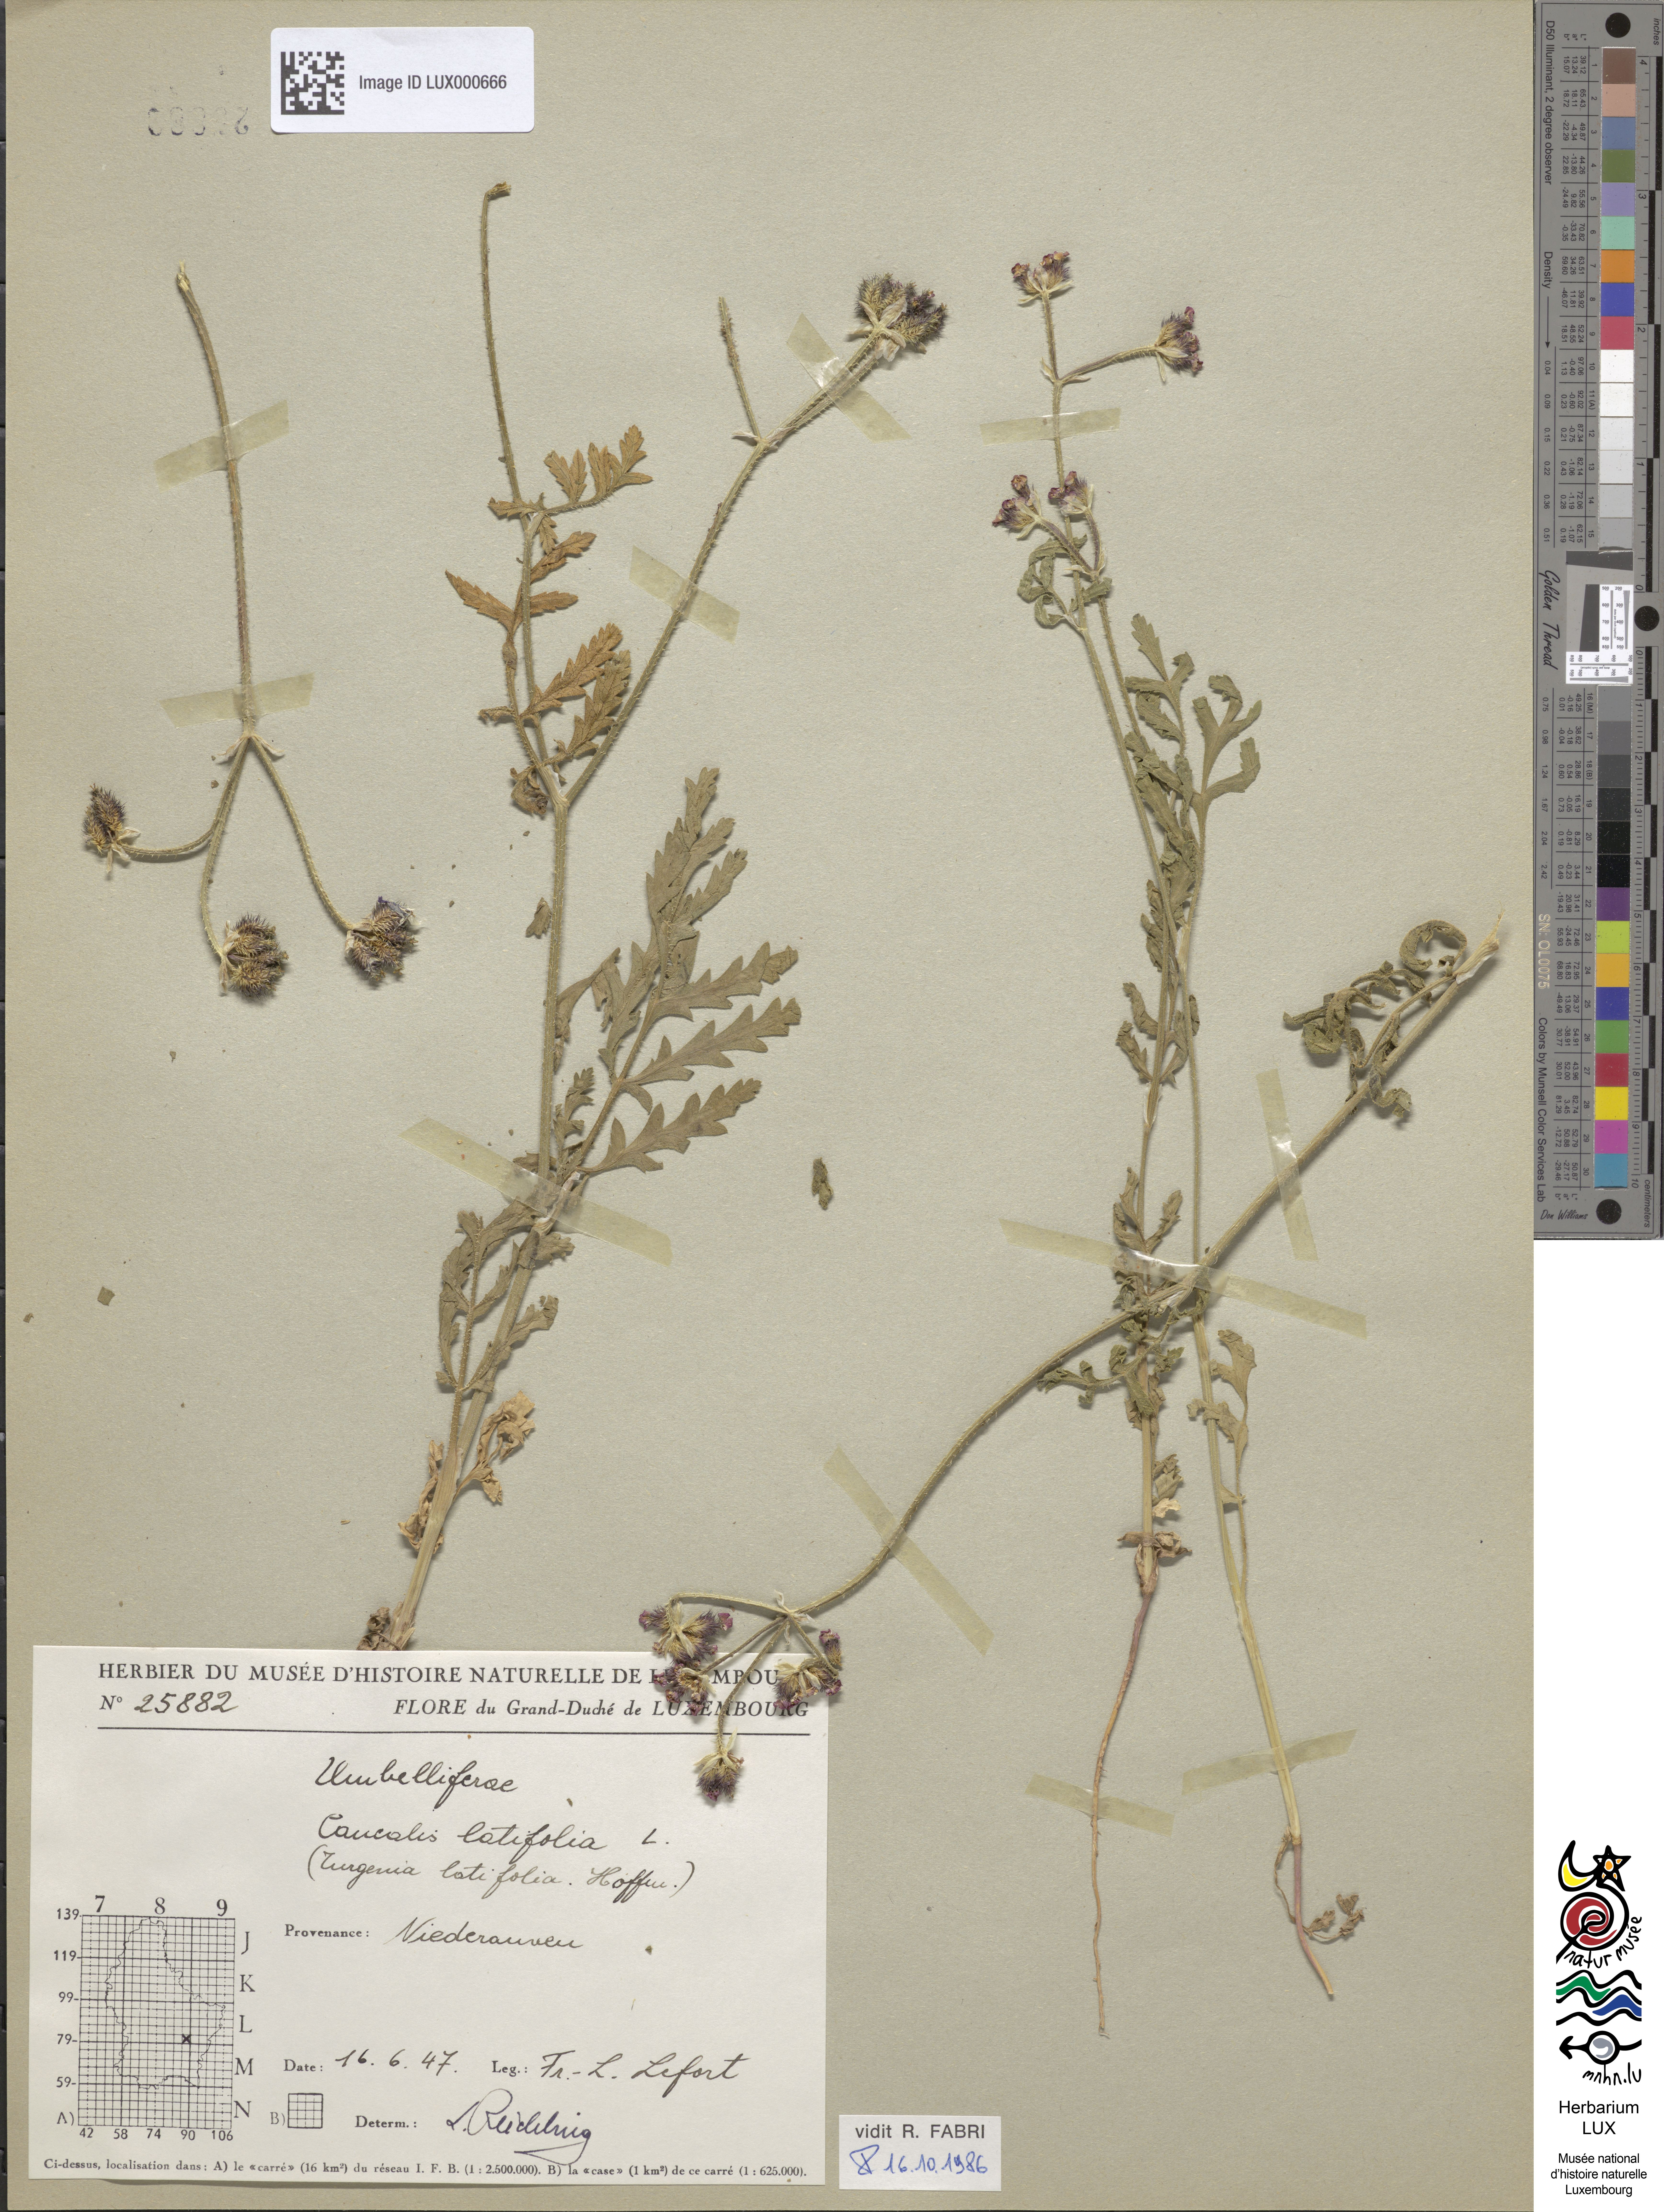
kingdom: Plantae
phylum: Tracheophyta
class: Magnoliopsida
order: Apiales
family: Apiaceae
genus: Turgenia
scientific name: Turgenia latifolia
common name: Greater bur-parsley
